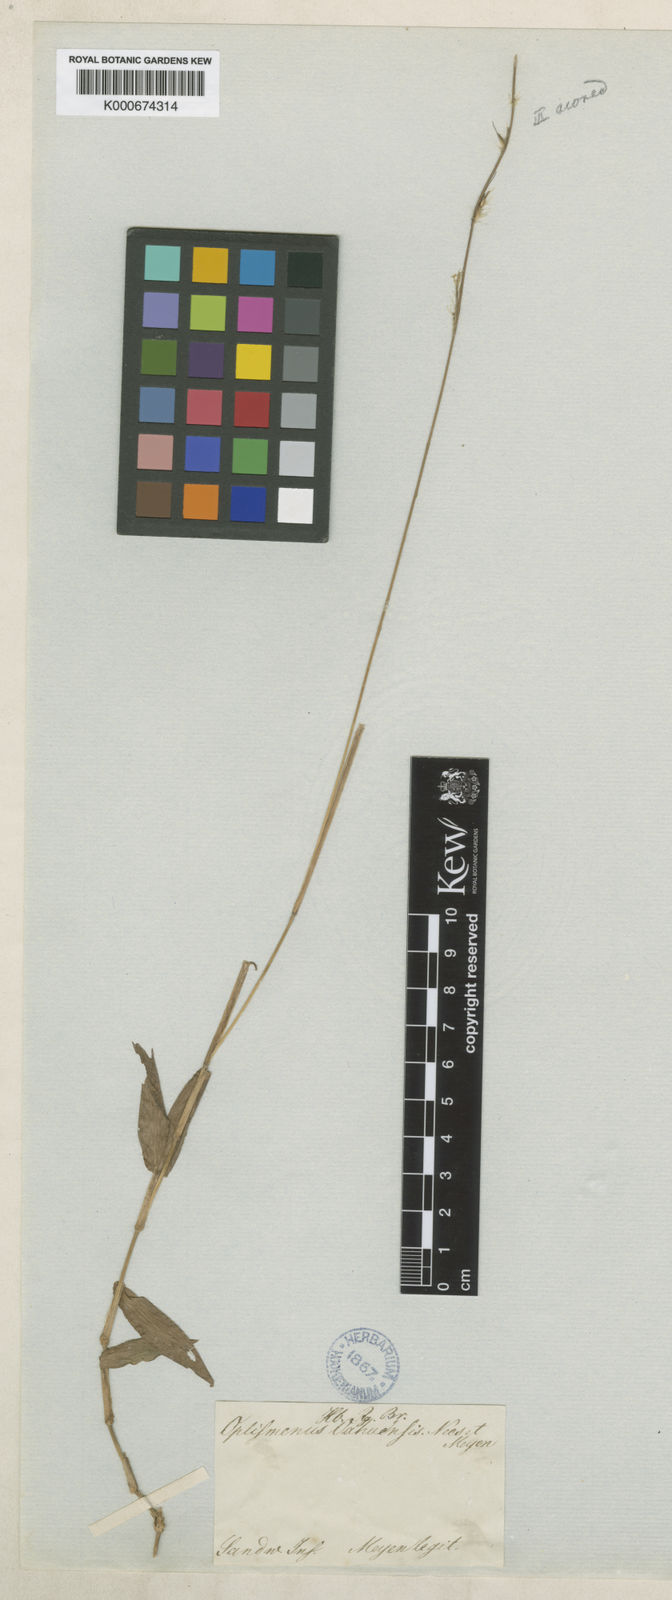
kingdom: Plantae
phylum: Tracheophyta
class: Liliopsida
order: Poales
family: Poaceae
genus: Oplismenus
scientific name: Oplismenus
